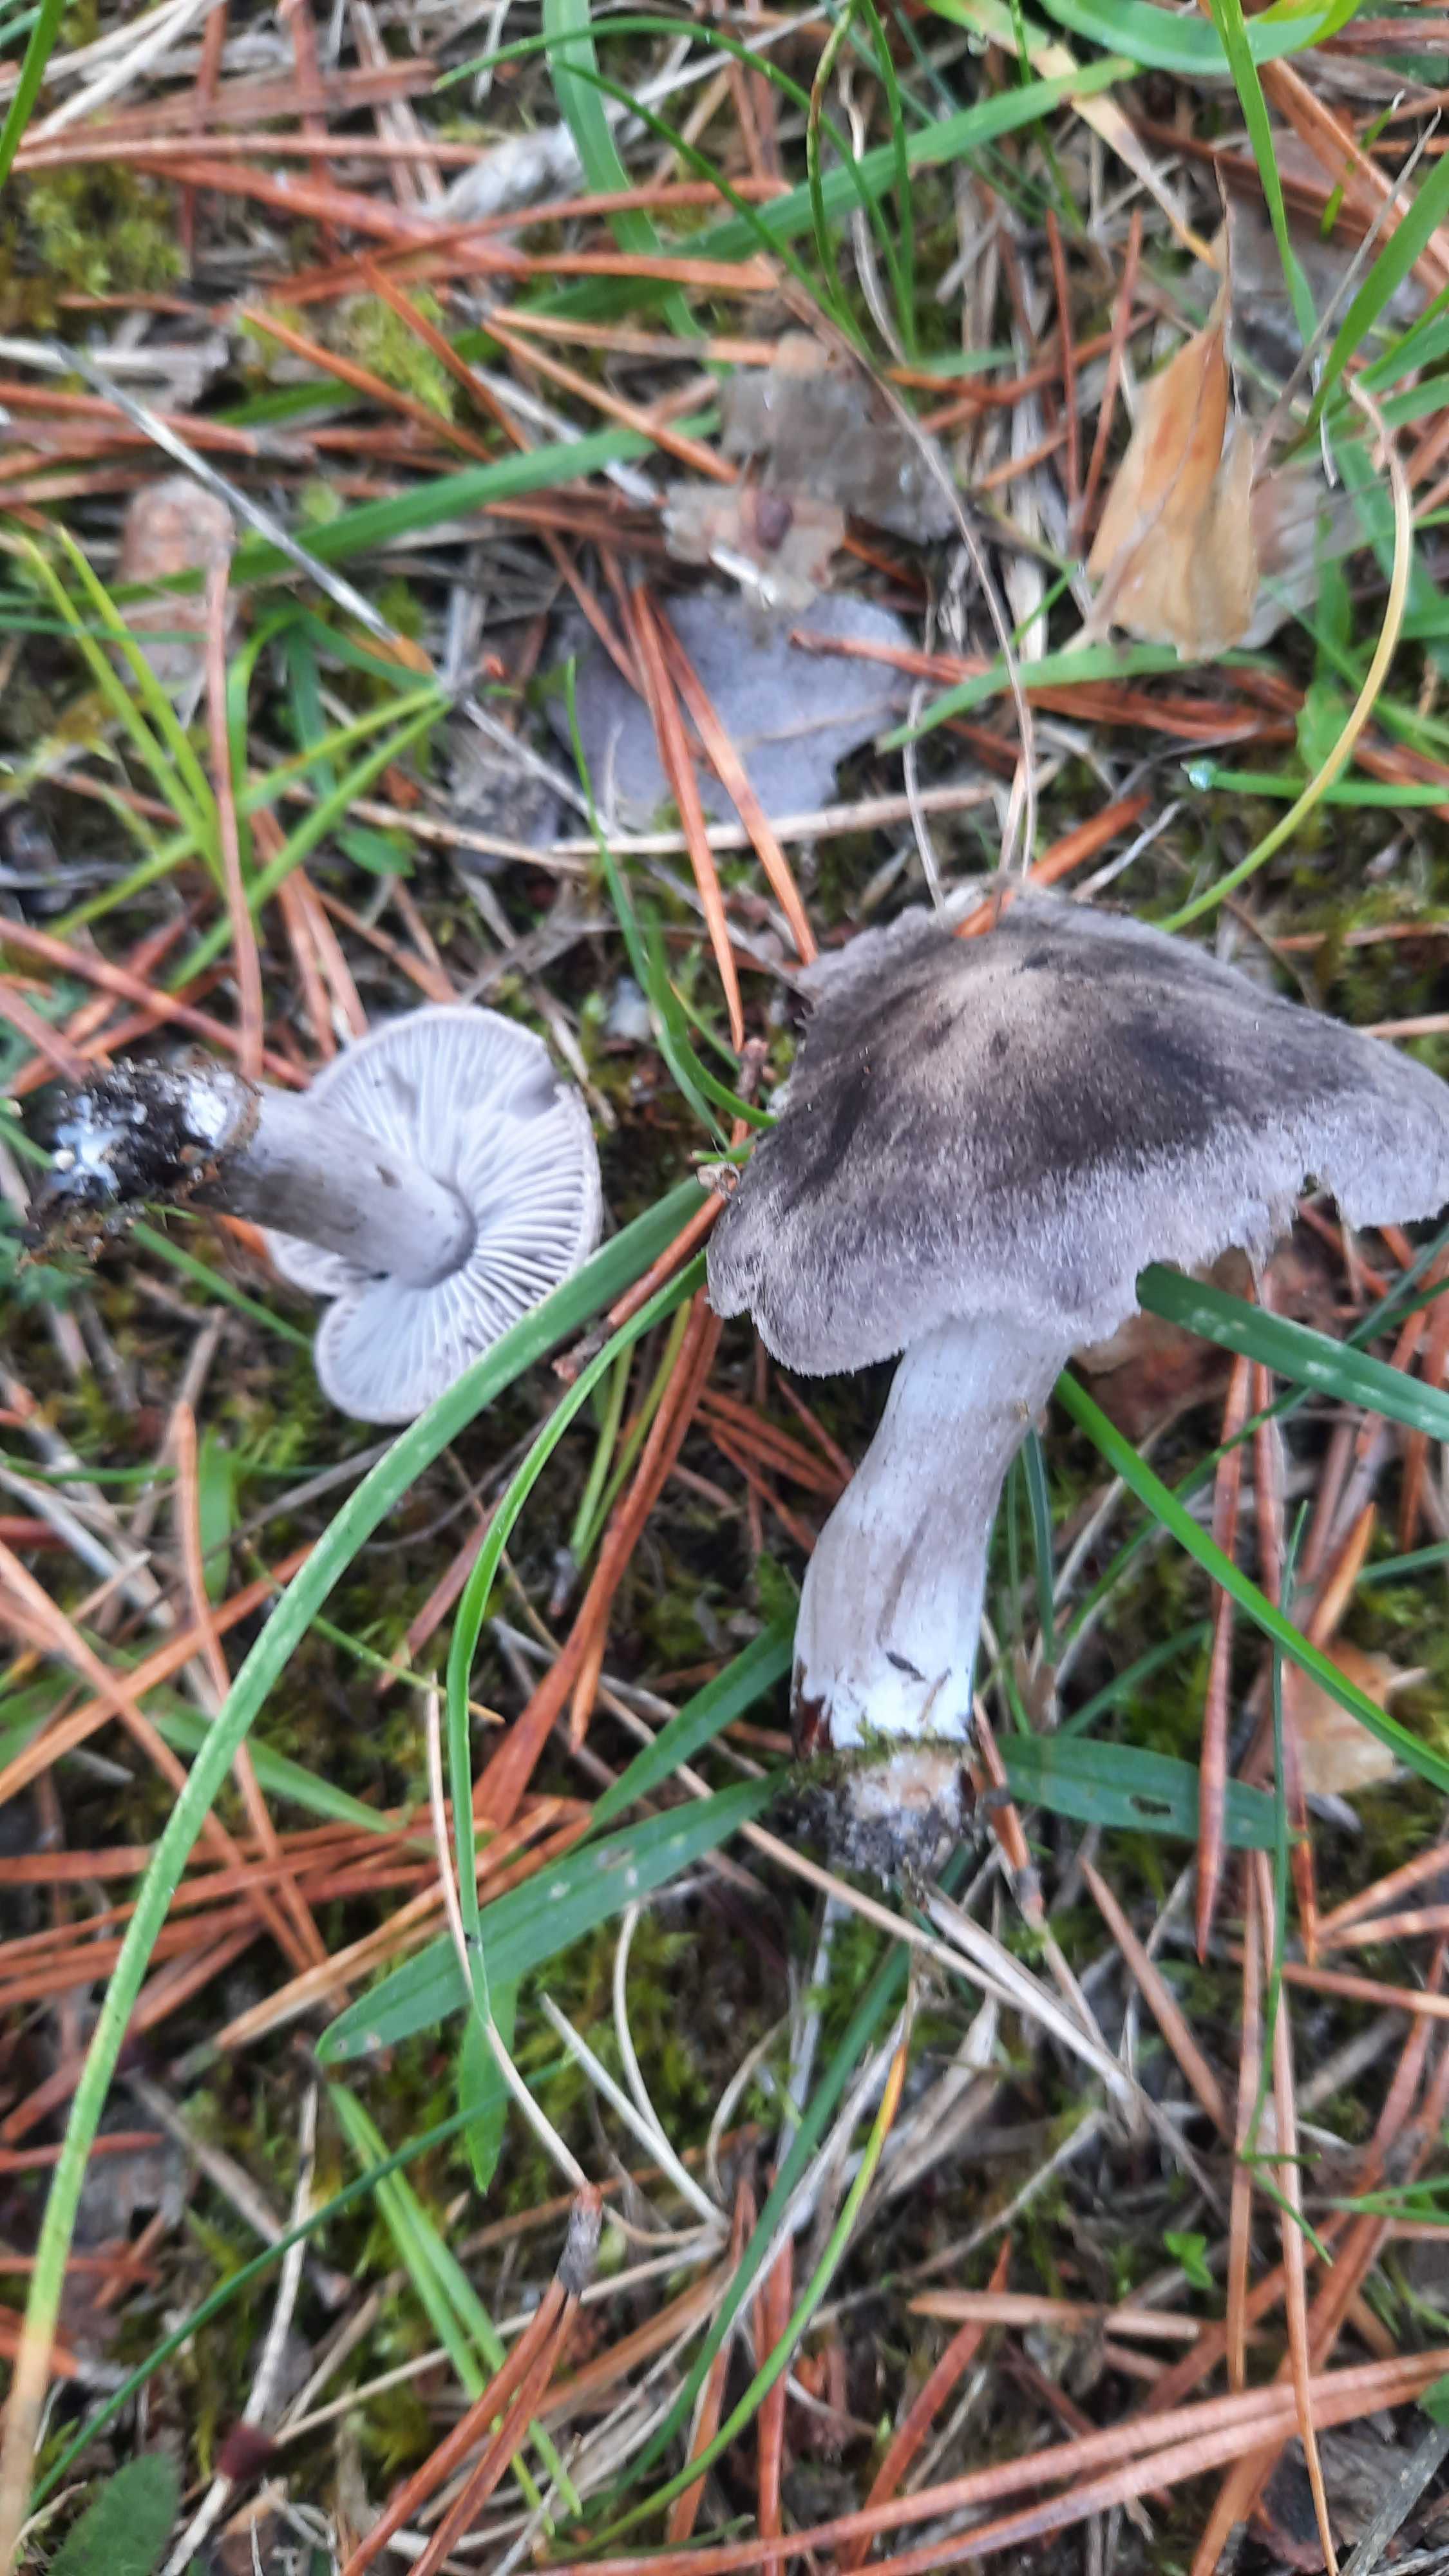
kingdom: Fungi
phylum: Basidiomycota
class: Agaricomycetes
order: Agaricales
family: Tricholomataceae
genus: Tricholoma
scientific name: Tricholoma terreum
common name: jordfarvet ridderhat
